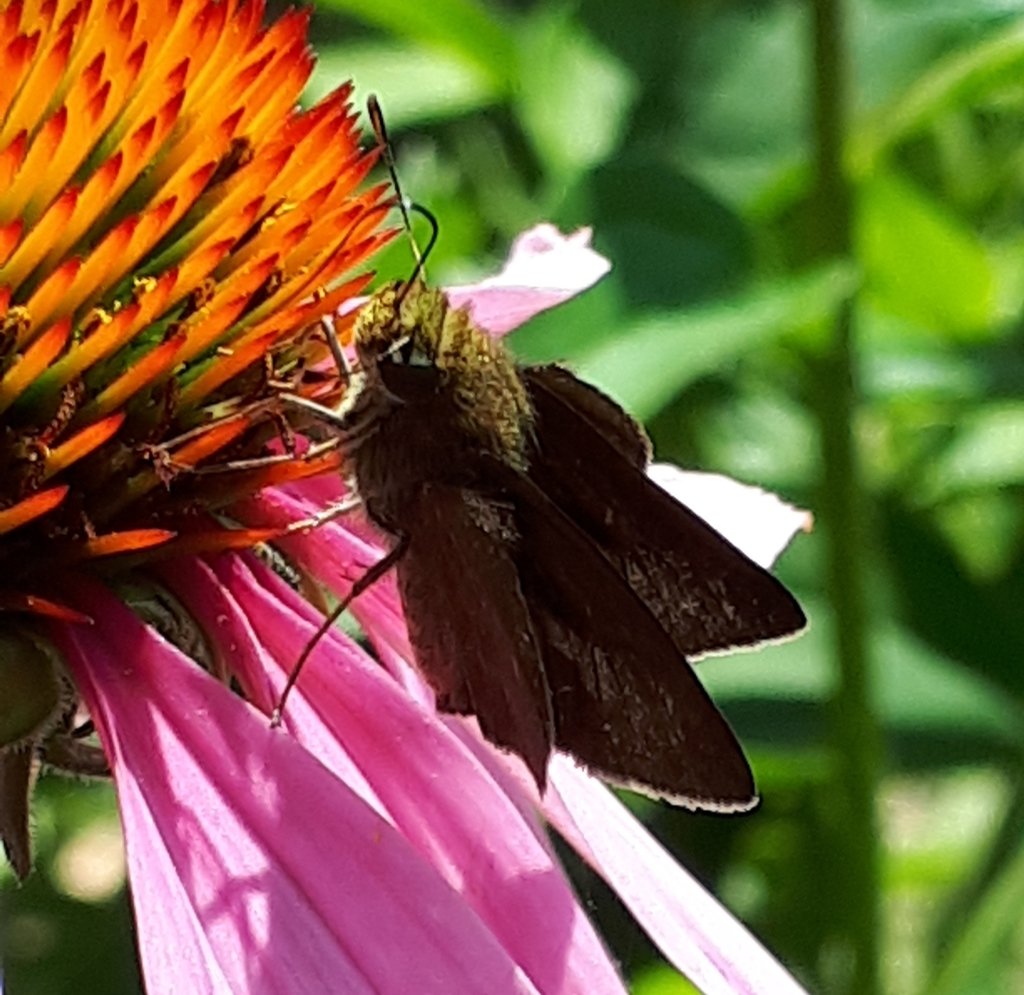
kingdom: Animalia
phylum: Arthropoda
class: Insecta
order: Lepidoptera
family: Hesperiidae
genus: Euphyes
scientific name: Euphyes vestris
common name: Dun Skipper
